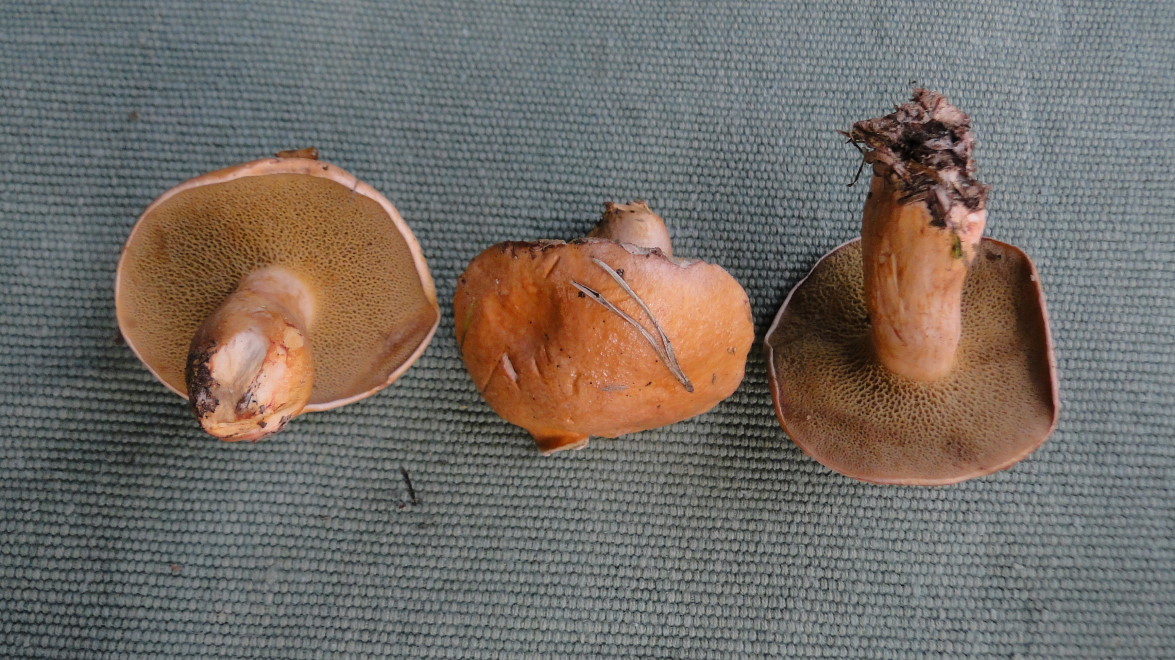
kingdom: Fungi
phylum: Basidiomycota
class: Agaricomycetes
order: Boletales
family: Suillaceae
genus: Suillus
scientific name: Suillus bovinus
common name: grovporet slimrørhat
